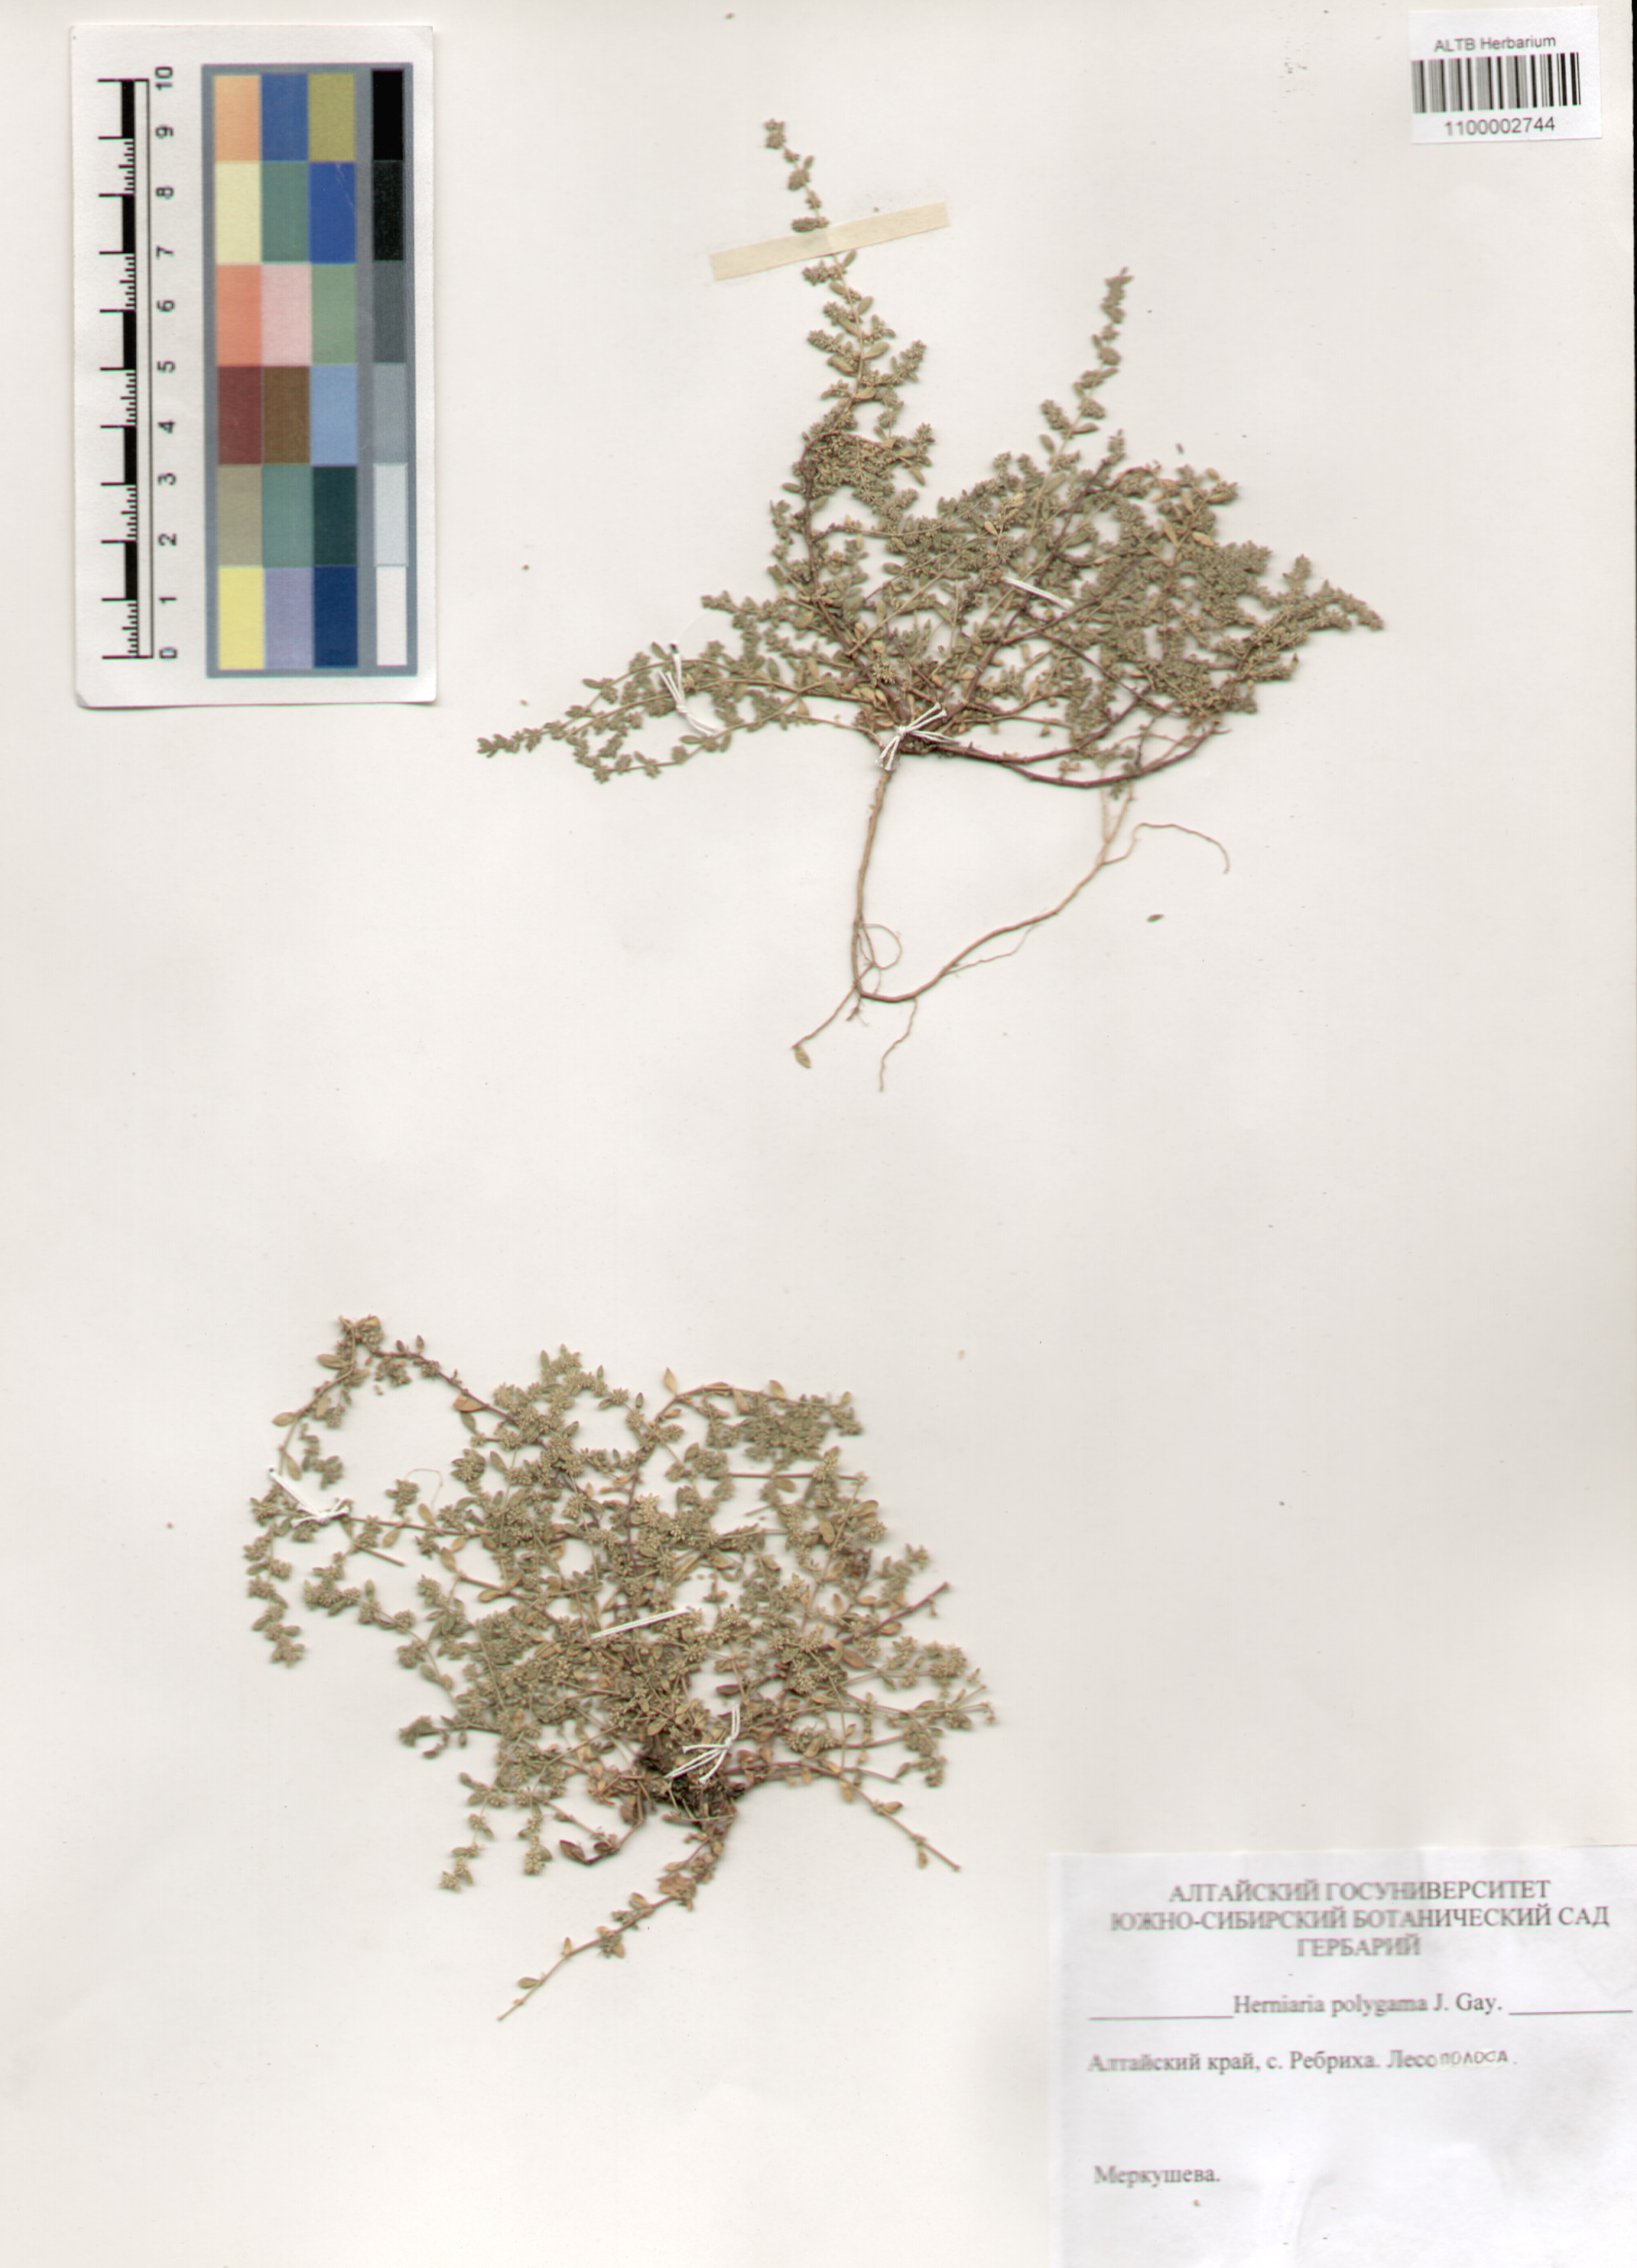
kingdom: Plantae
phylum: Tracheophyta
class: Magnoliopsida
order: Caryophyllales
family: Caryophyllaceae
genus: Herniaria
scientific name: Herniaria polygama
